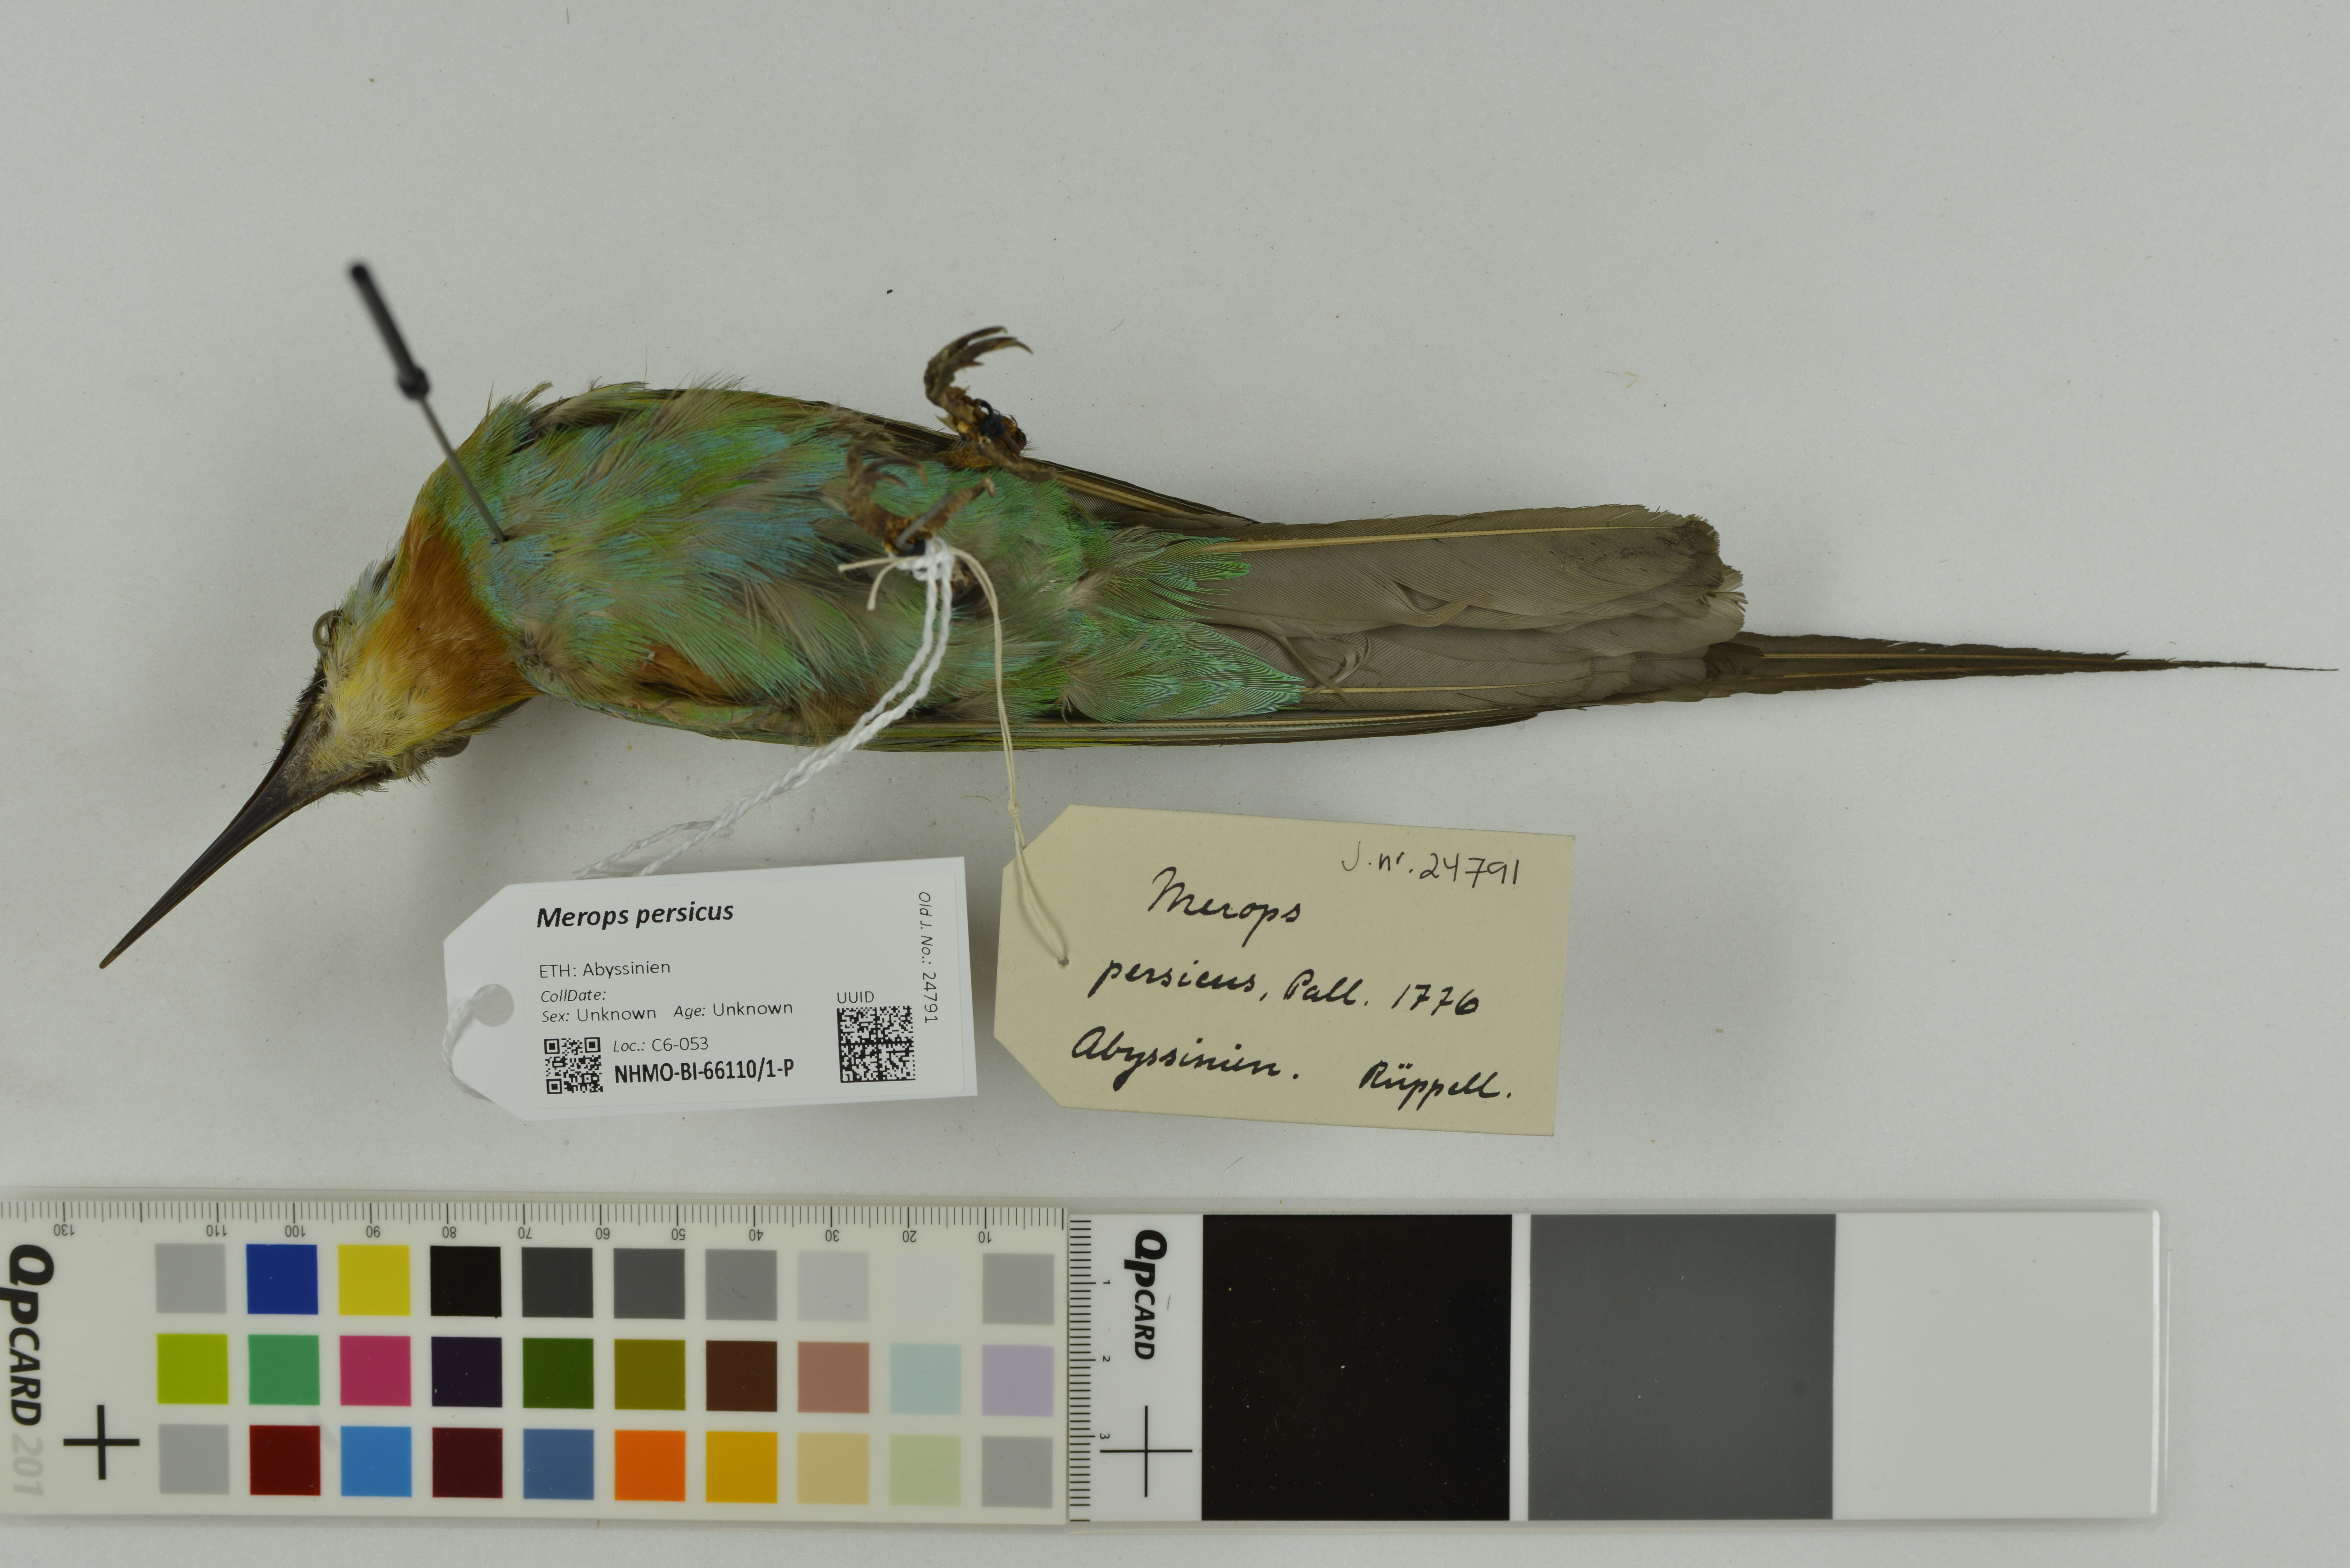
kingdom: Animalia
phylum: Chordata
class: Aves
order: Coraciiformes
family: Meropidae
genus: Merops
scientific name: Merops persicus
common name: Blue-cheeked bee-eater
